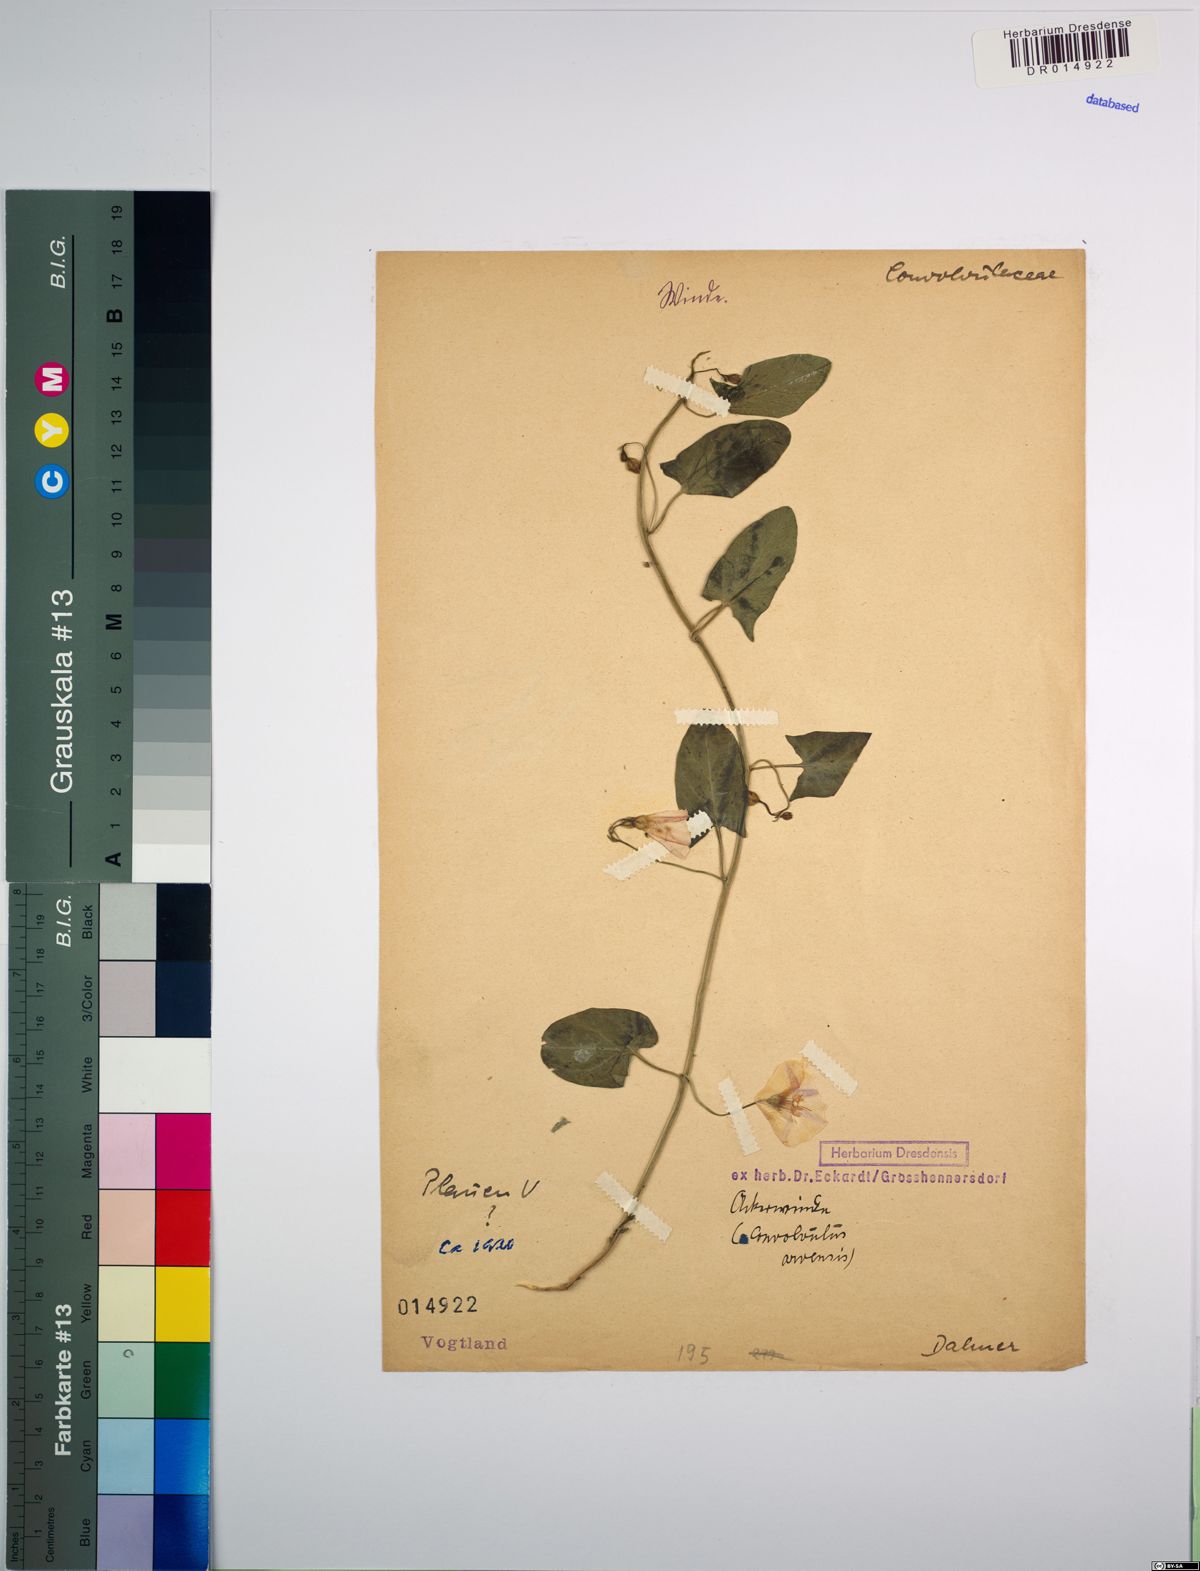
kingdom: Plantae
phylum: Tracheophyta
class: Magnoliopsida
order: Solanales
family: Convolvulaceae
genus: Convolvulus
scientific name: Convolvulus arvensis
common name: Field bindweed
